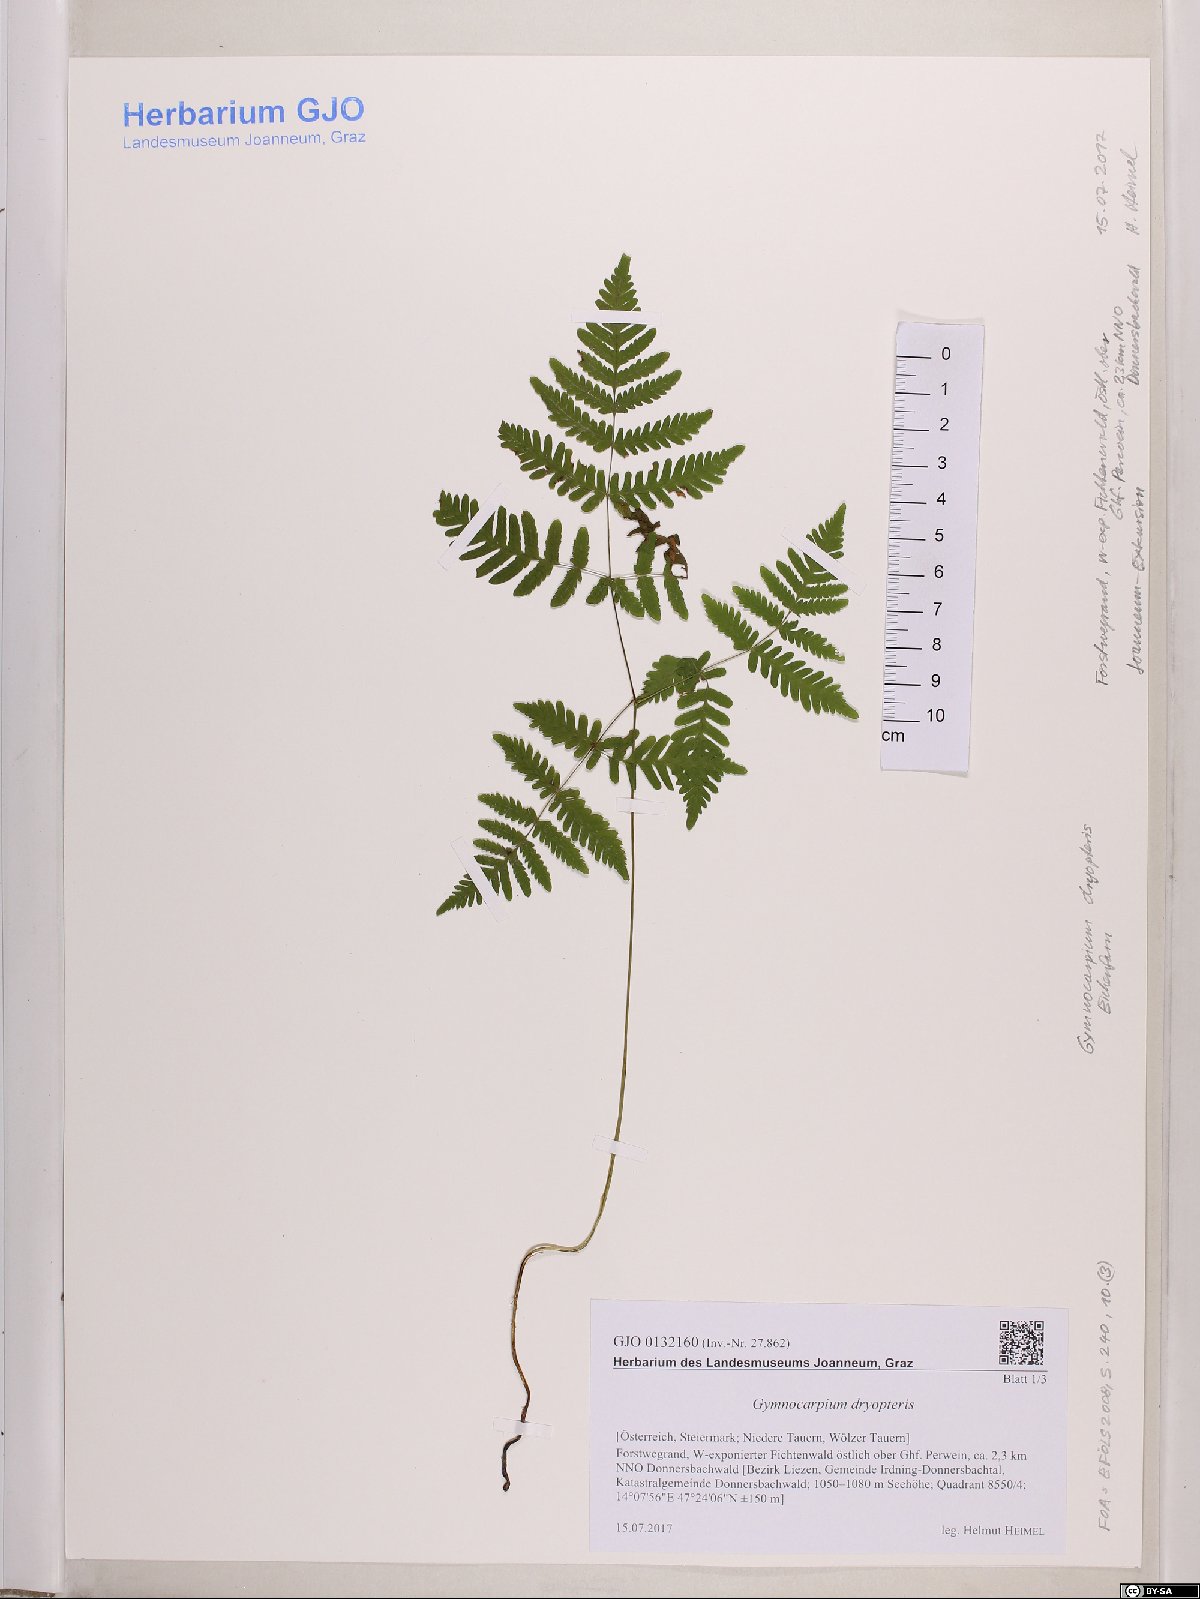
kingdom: Plantae
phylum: Tracheophyta
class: Polypodiopsida
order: Polypodiales
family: Cystopteridaceae
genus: Gymnocarpium
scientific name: Gymnocarpium dryopteris
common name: Oak fern
